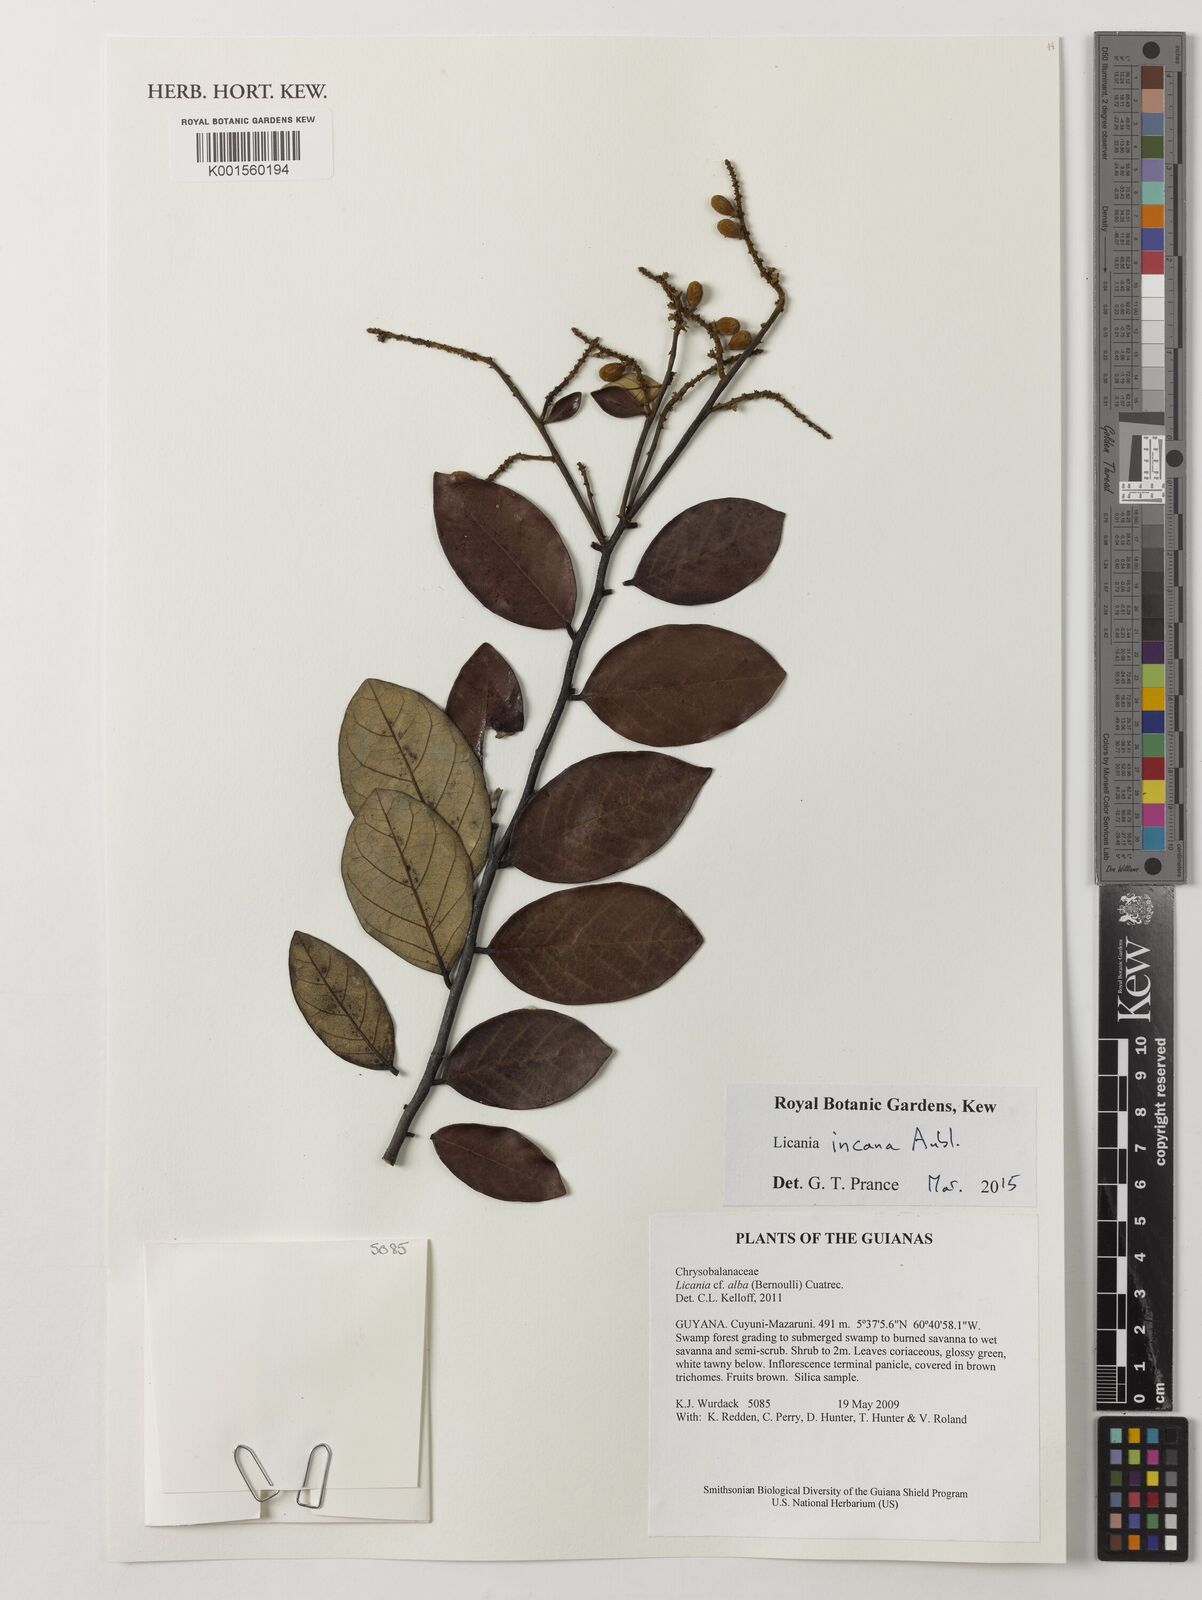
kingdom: Plantae
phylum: Tracheophyta
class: Magnoliopsida
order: Malpighiales
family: Chrysobalanaceae
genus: Licania
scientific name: Licania incana
